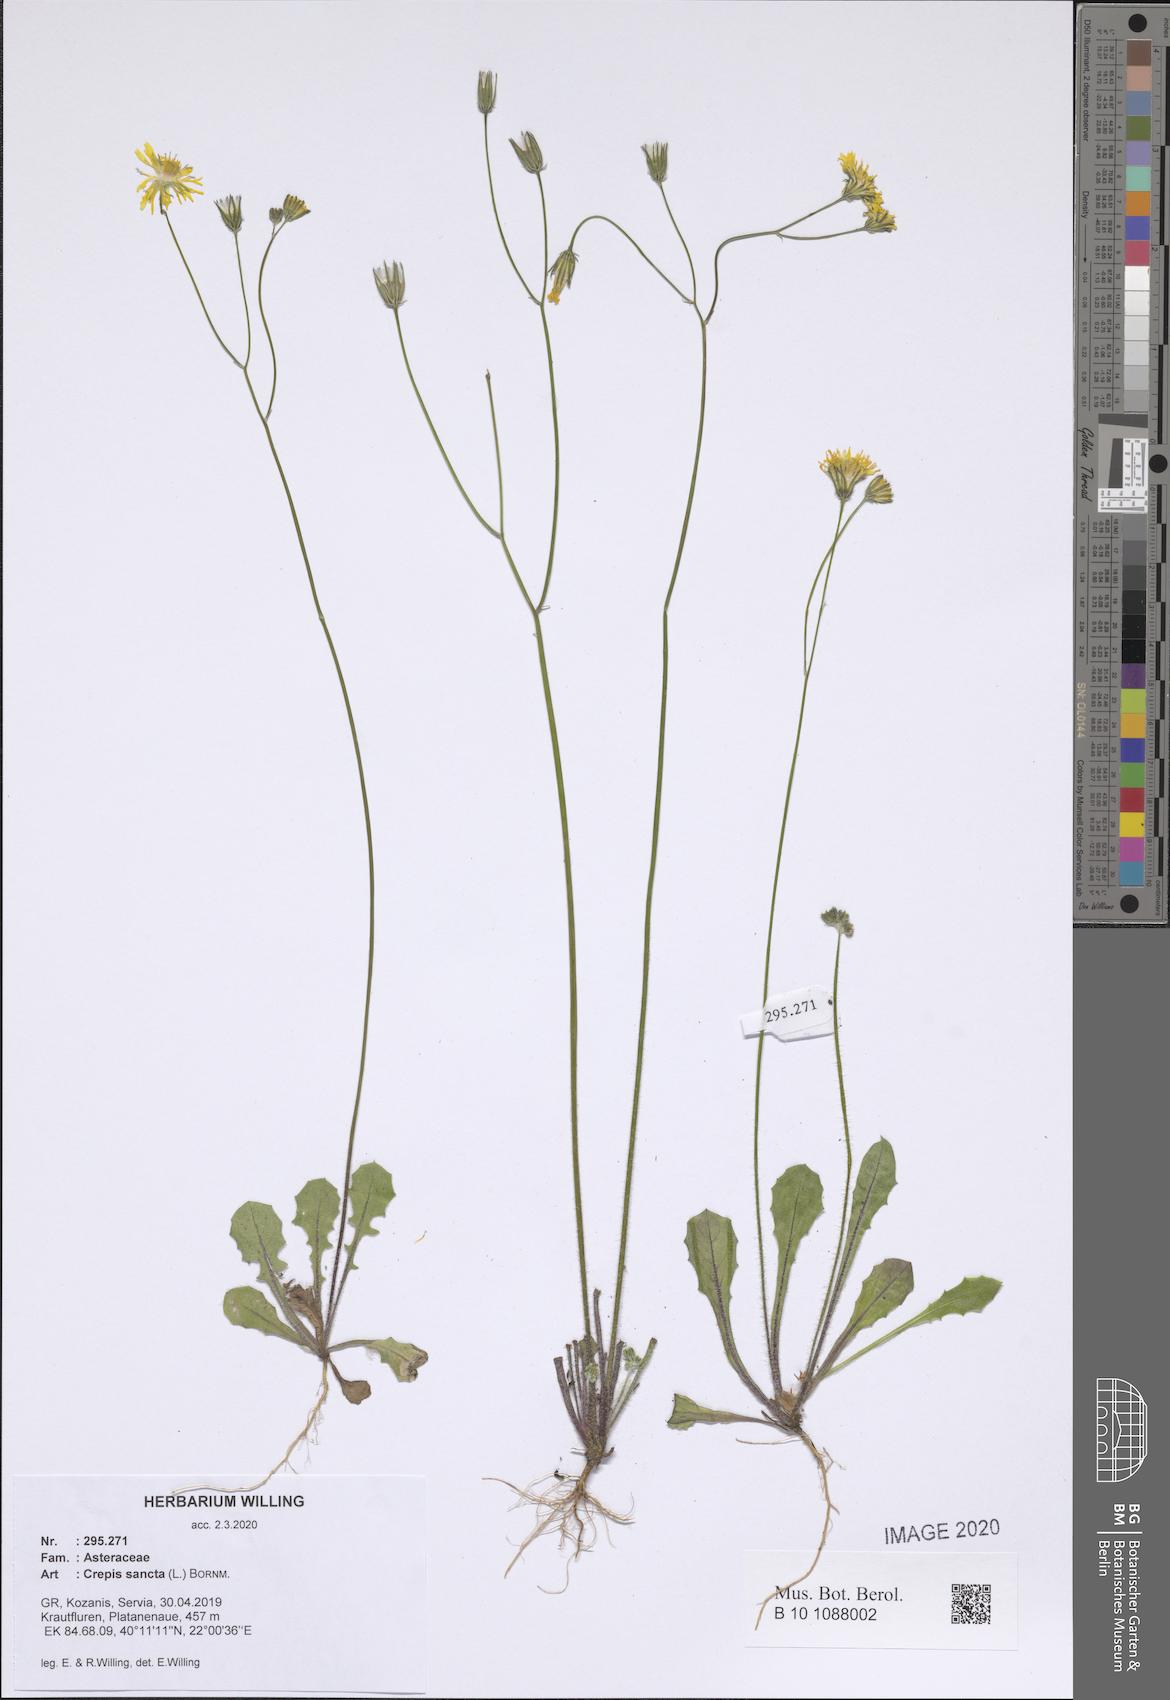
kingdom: Plantae
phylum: Tracheophyta
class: Magnoliopsida
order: Asterales
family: Asteraceae
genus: Crepis
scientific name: Crepis sancta
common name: Hawk's-beard
